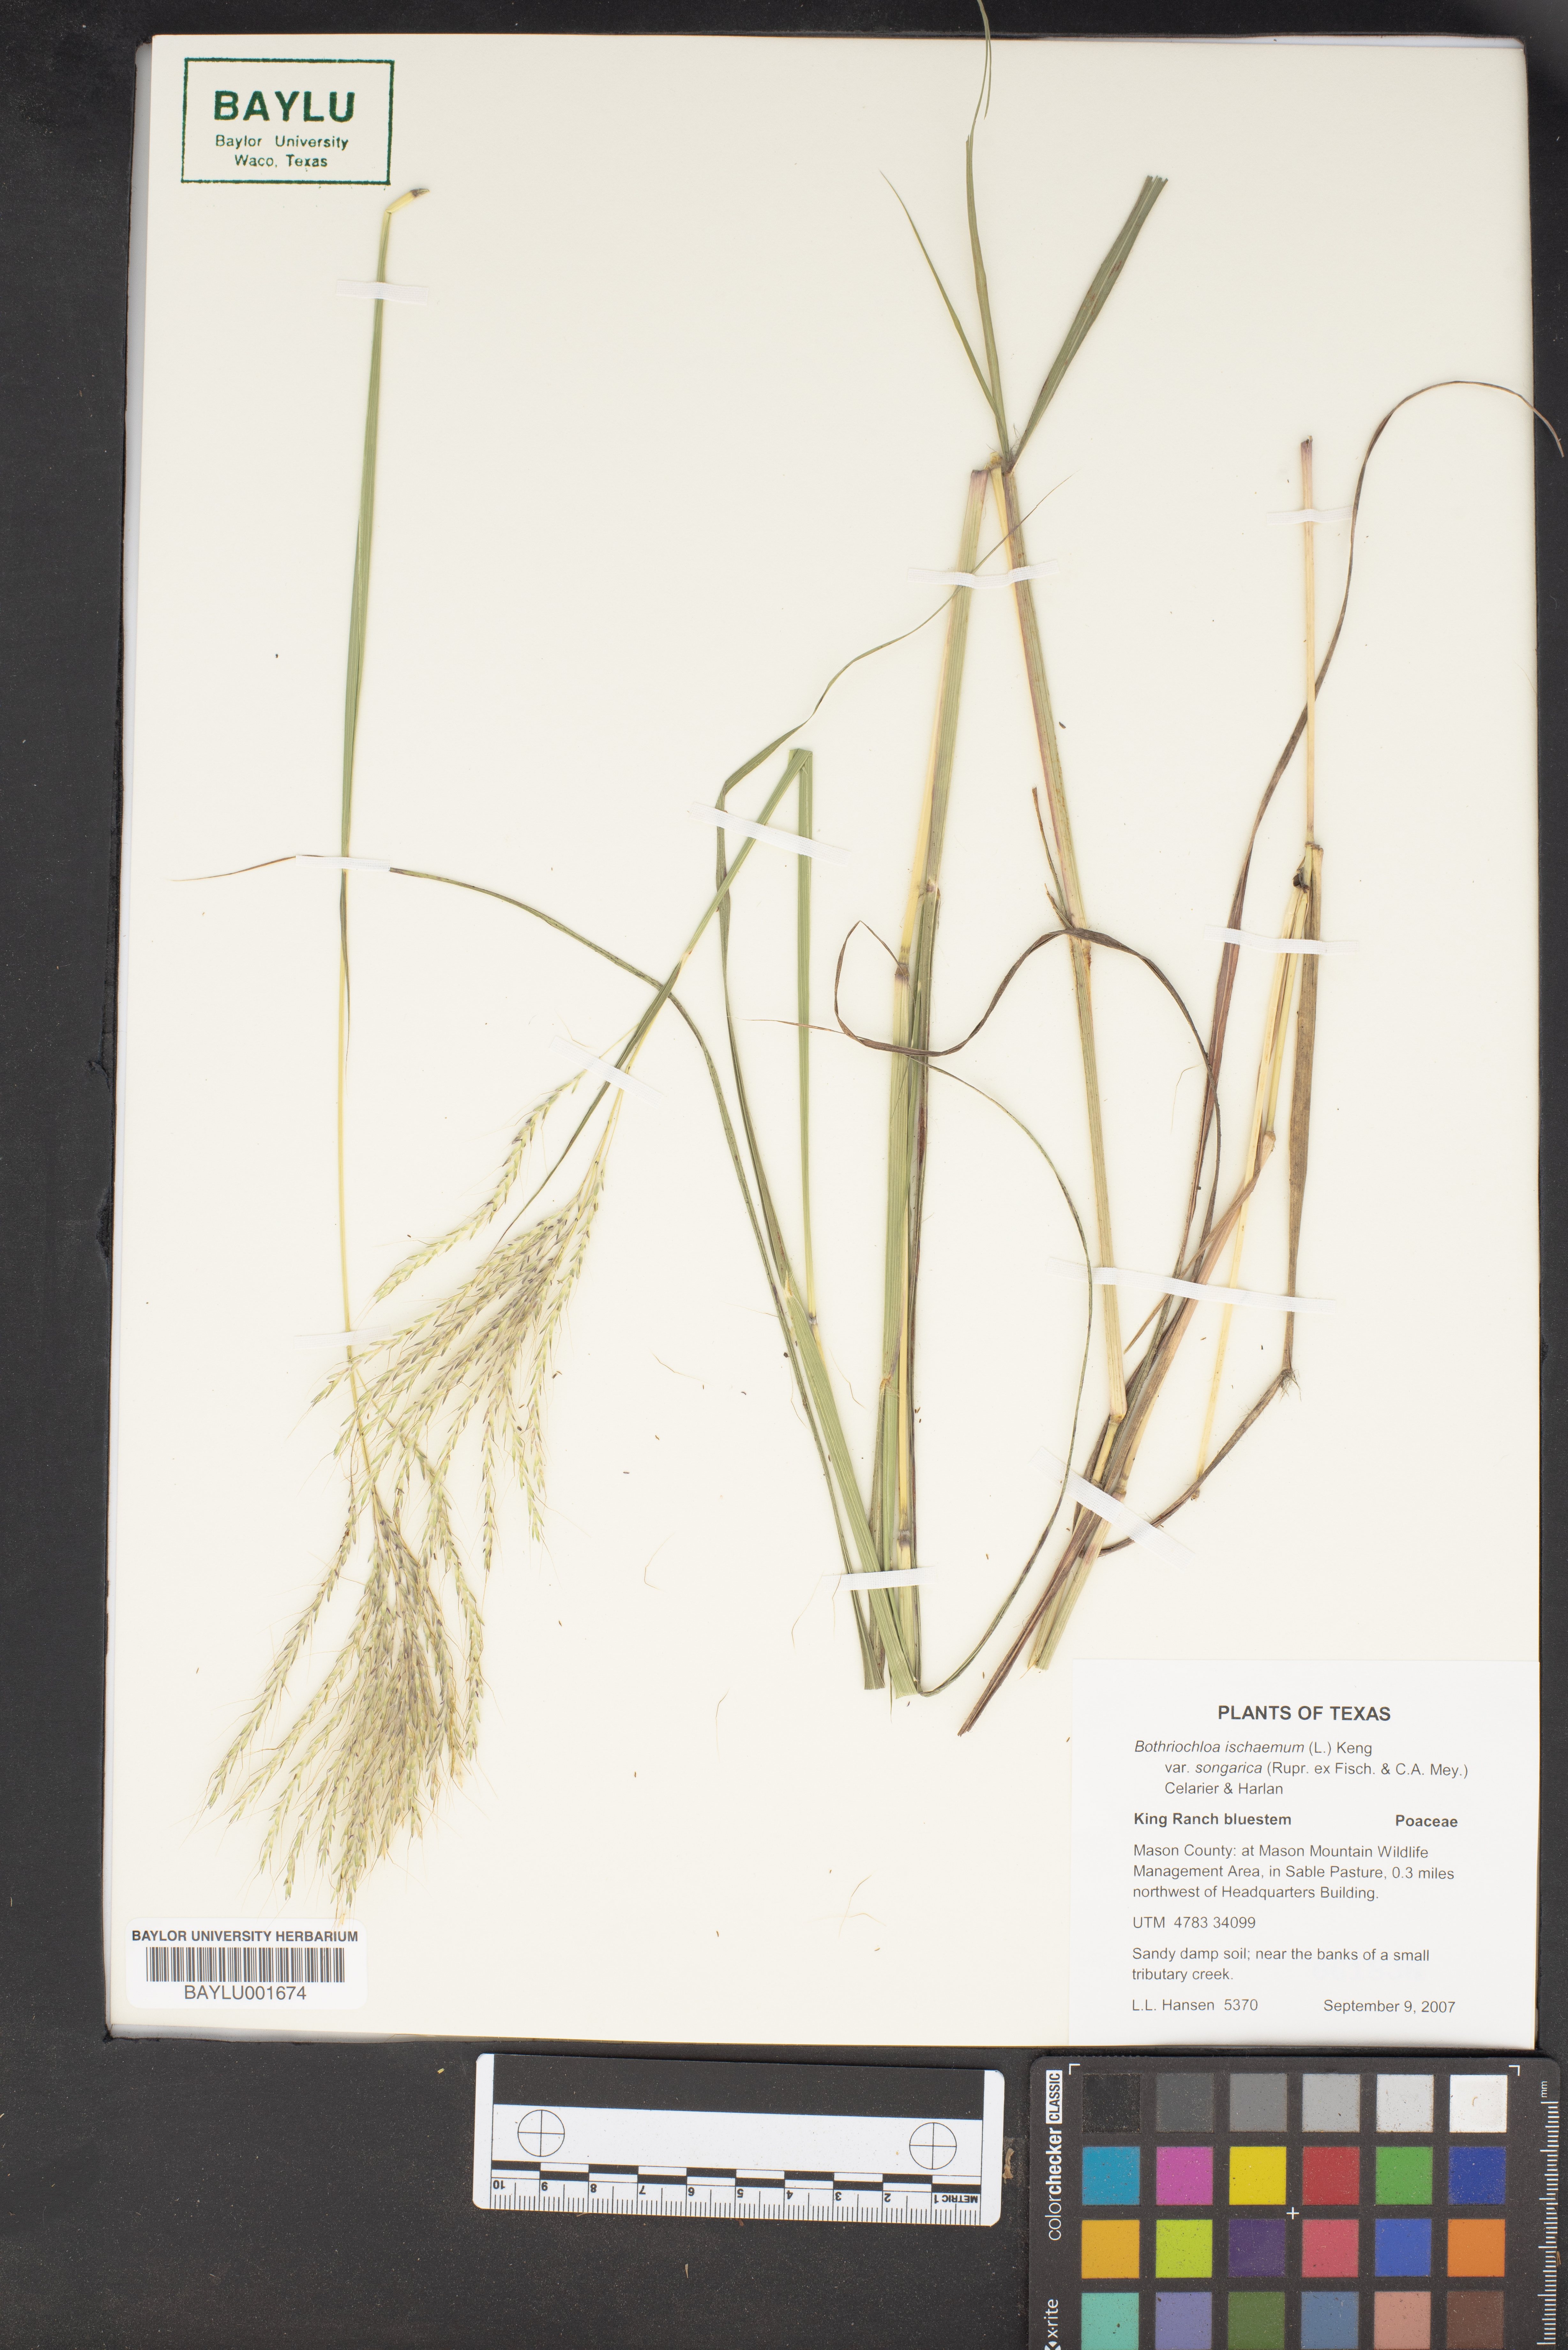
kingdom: Plantae
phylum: Tracheophyta
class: Liliopsida
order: Poales
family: Poaceae
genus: Bothriochloa
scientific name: Bothriochloa ischaemum
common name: Yellow bluestem
